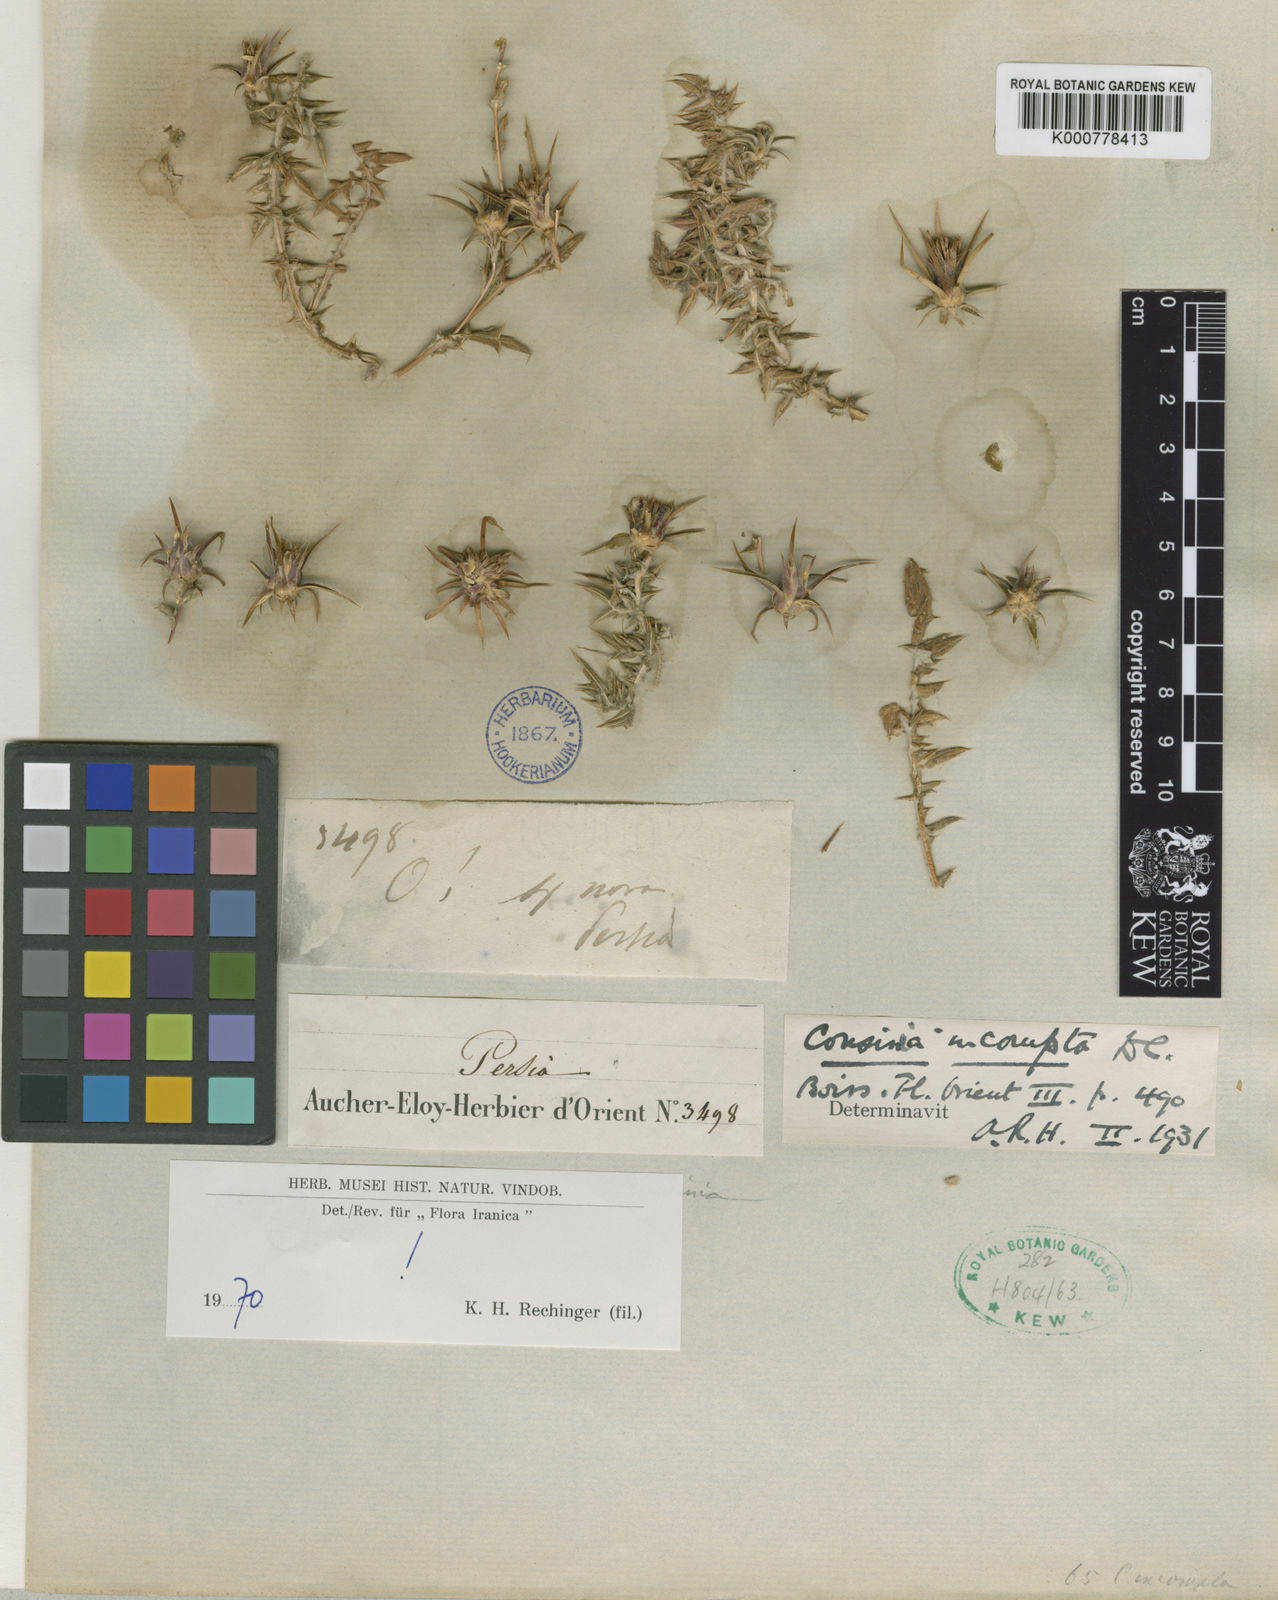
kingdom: Plantae
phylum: Tracheophyta
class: Magnoliopsida
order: Asterales
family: Asteraceae
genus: Cousinia
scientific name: Cousinia pugionifera
